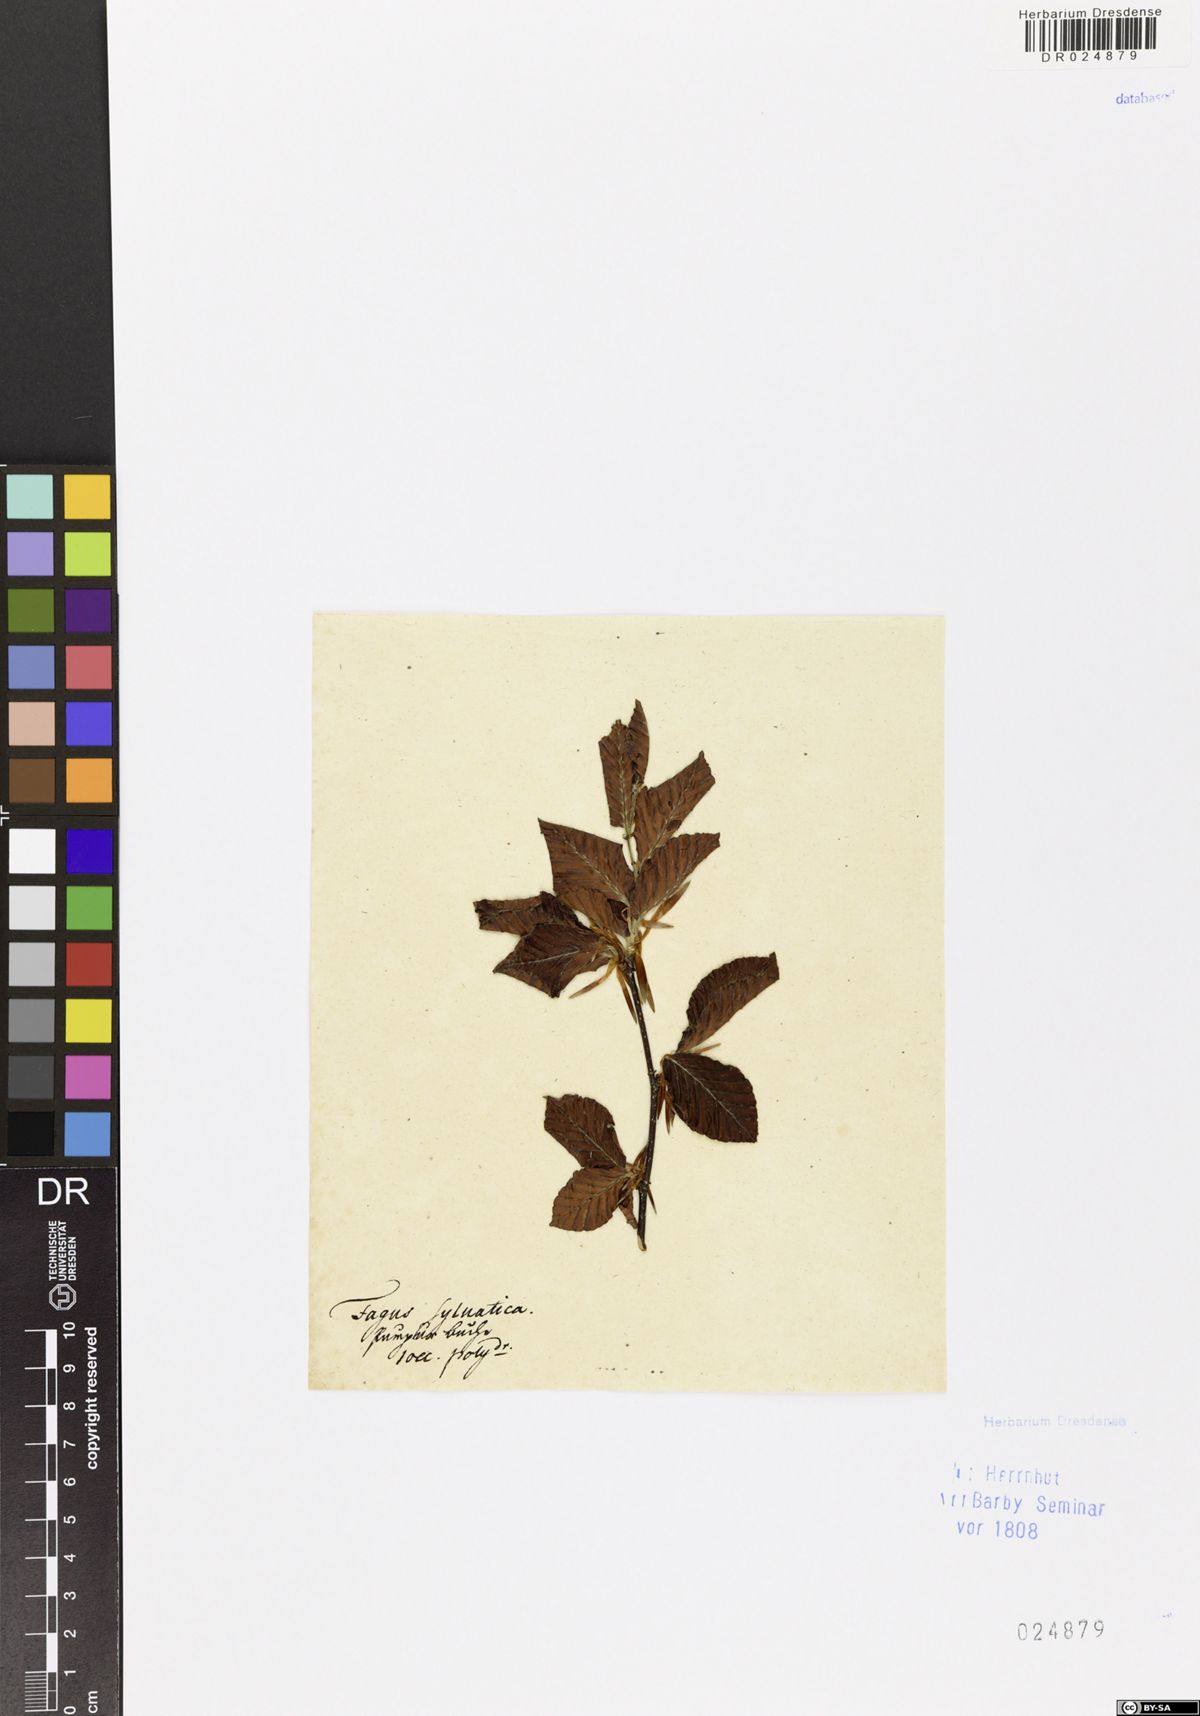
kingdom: Plantae
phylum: Tracheophyta
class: Magnoliopsida
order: Fagales
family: Fagaceae
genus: Fagus
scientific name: Fagus sylvatica
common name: Beech
